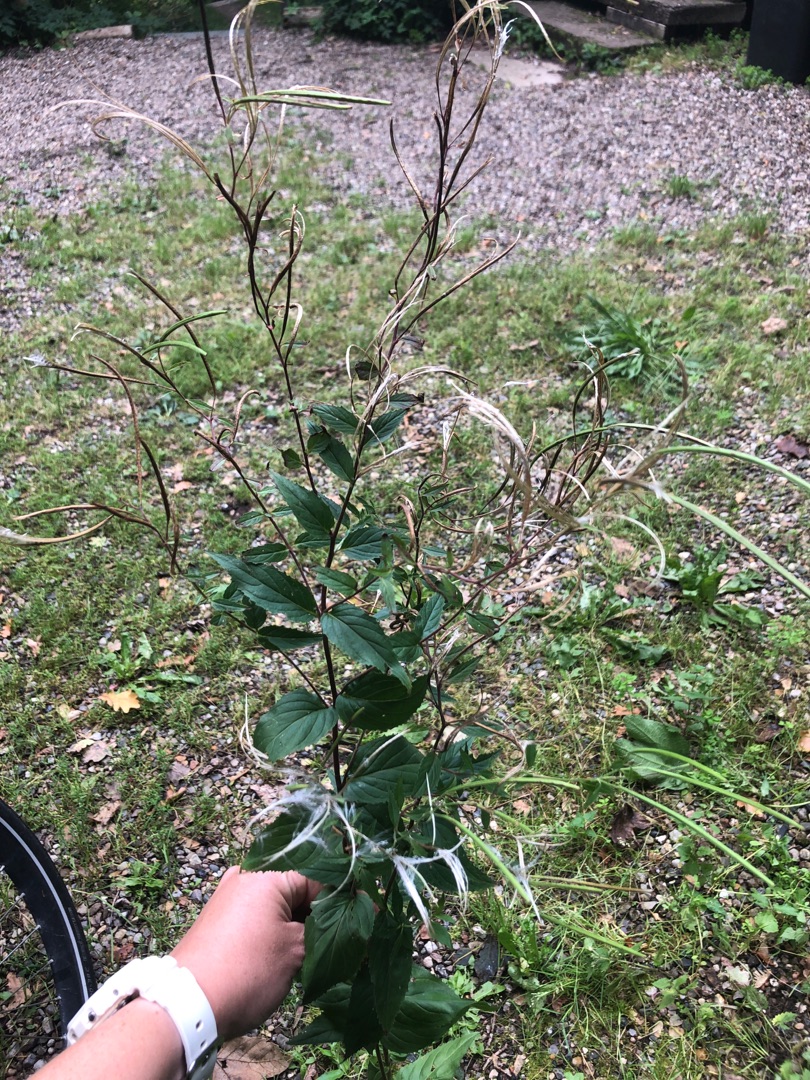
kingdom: Plantae
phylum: Tracheophyta
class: Magnoliopsida
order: Myrtales
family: Onagraceae
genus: Epilobium
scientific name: Epilobium montanum
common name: Glat dueurt
